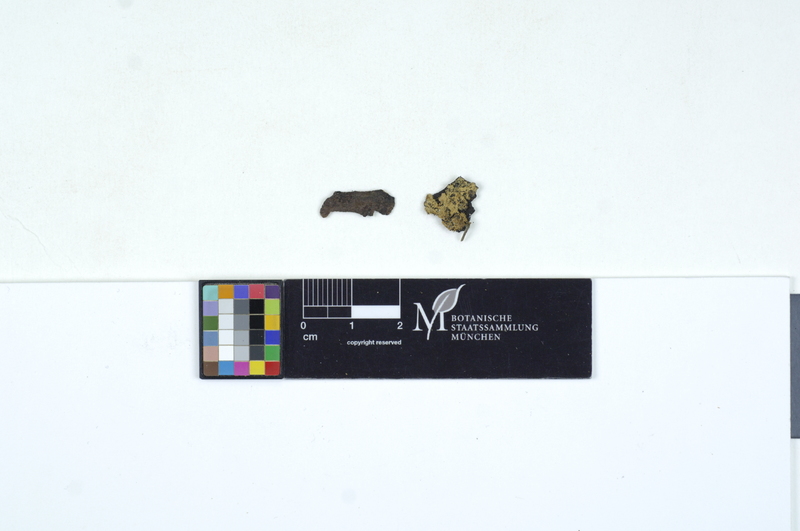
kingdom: Plantae
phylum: Tracheophyta
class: Pinopsida
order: Pinales
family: Pinaceae
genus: Picea
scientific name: Picea
